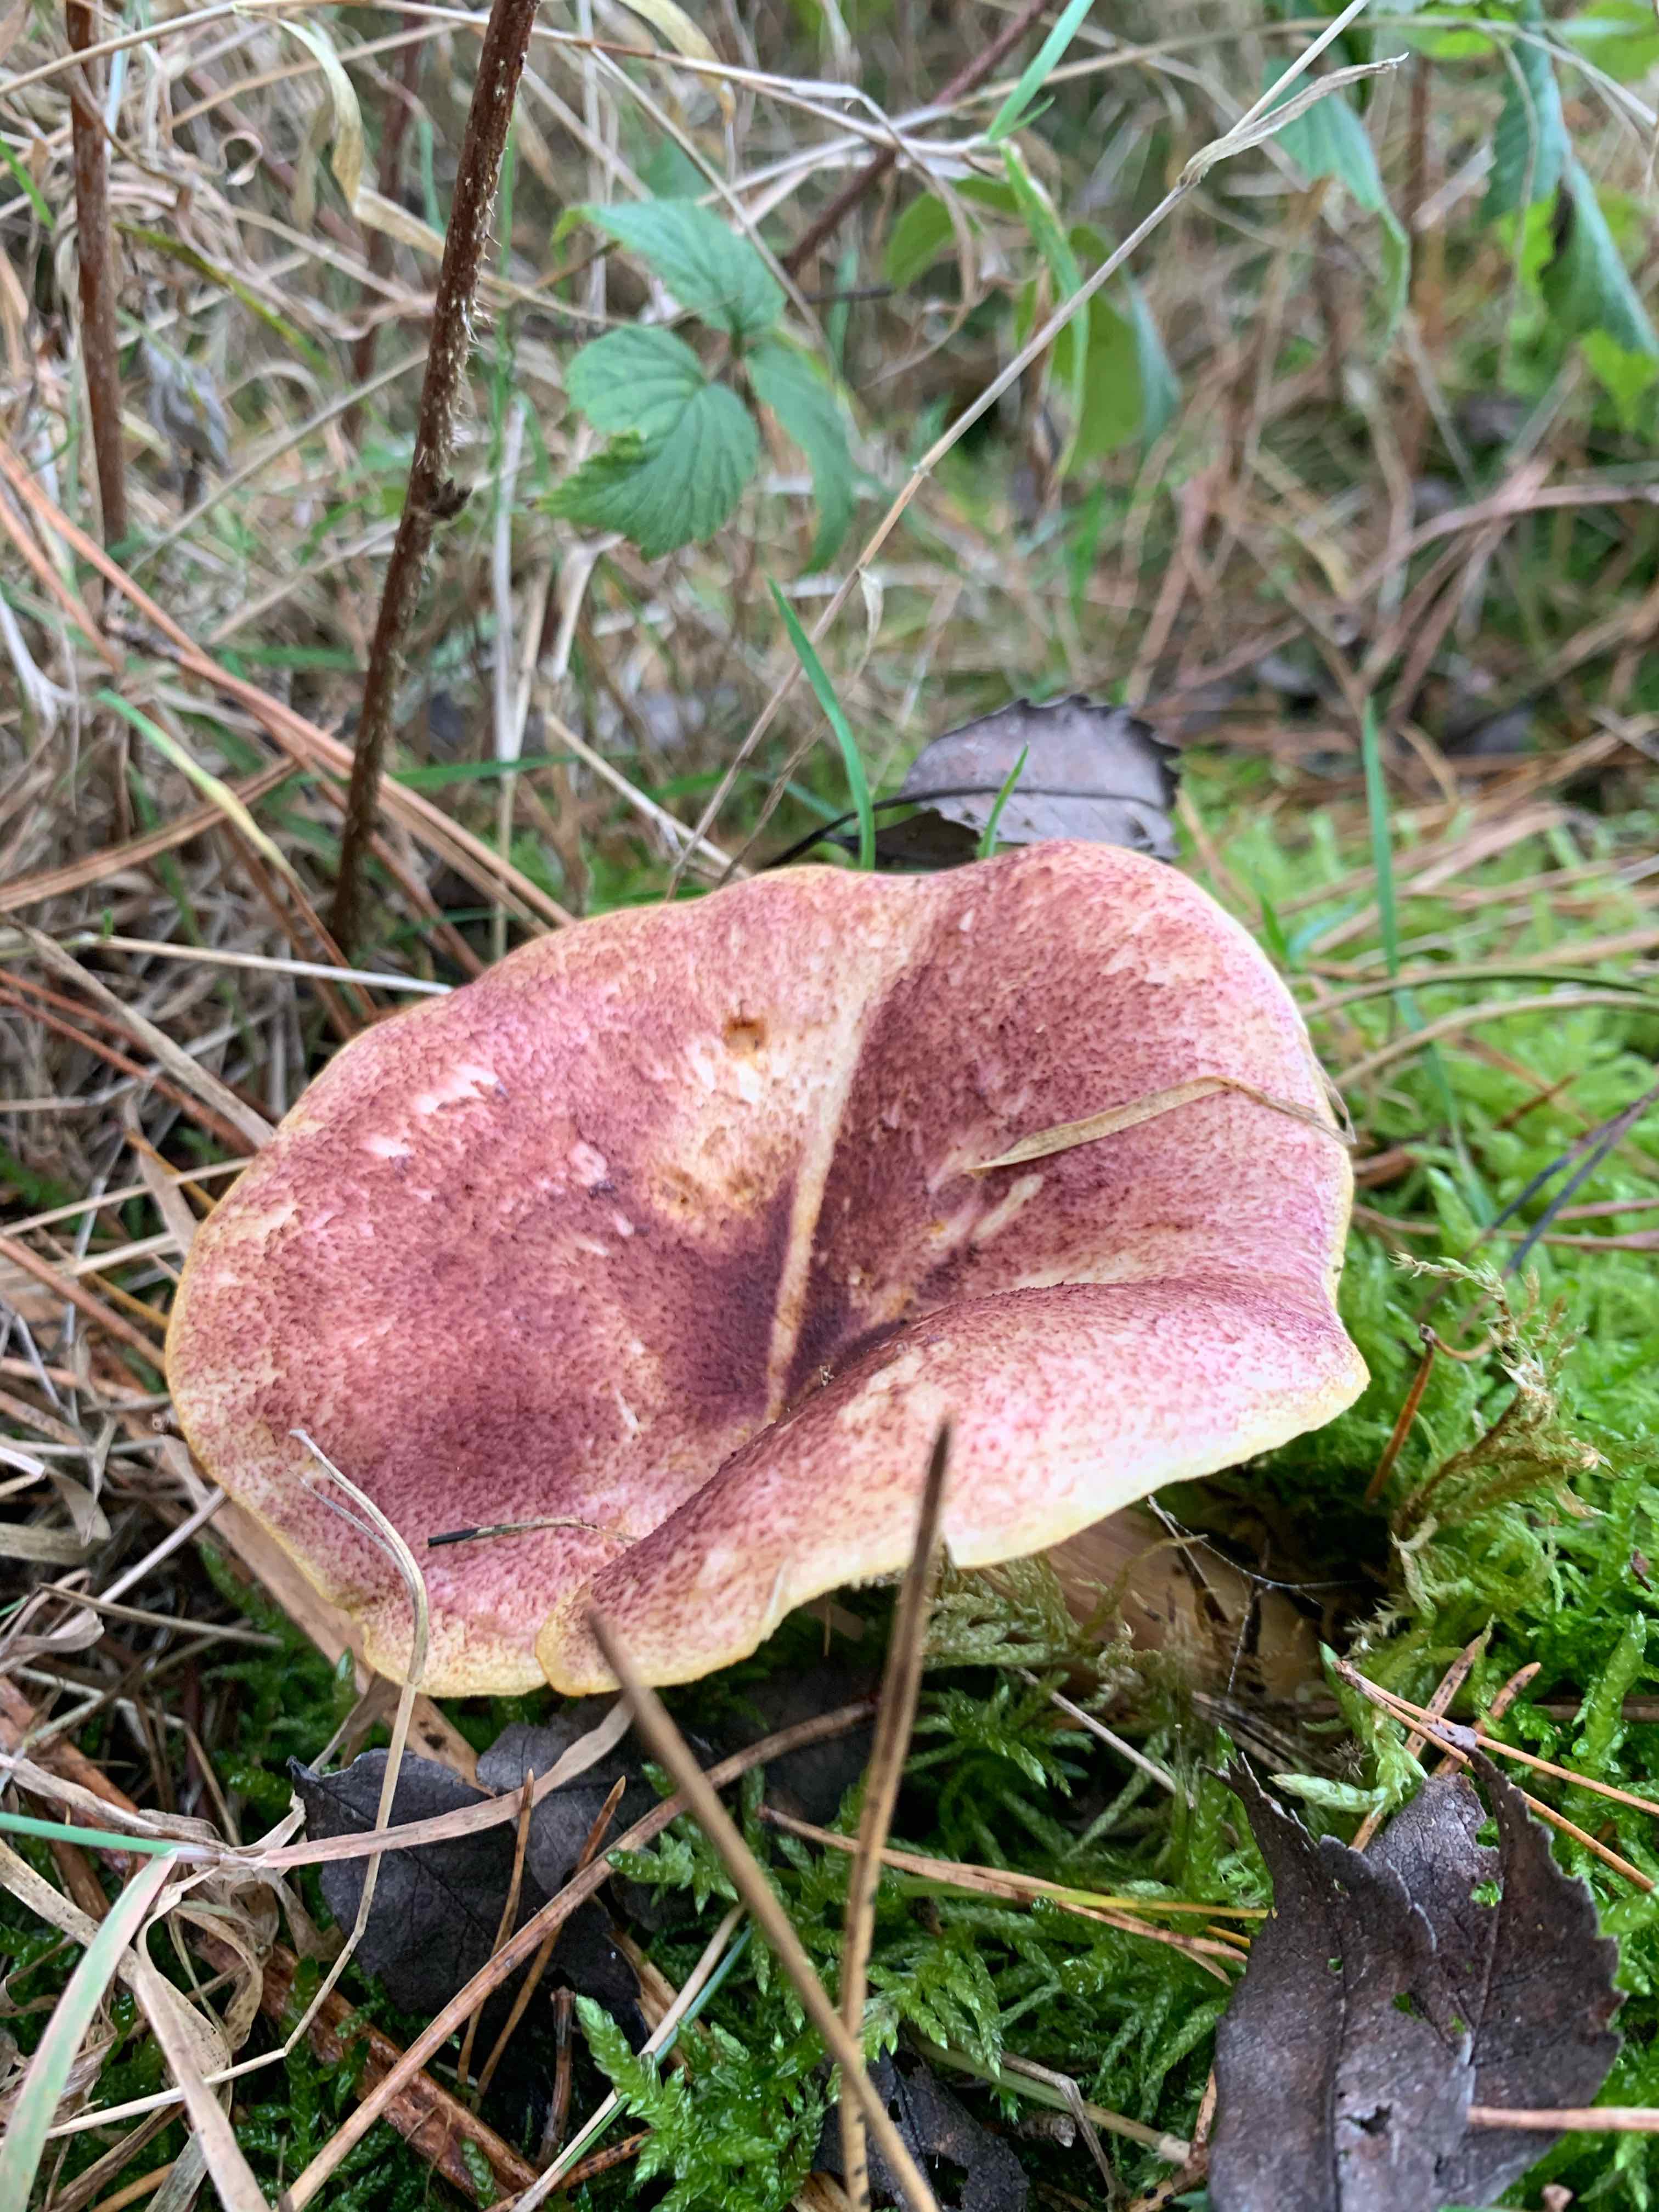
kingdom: Fungi
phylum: Basidiomycota
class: Agaricomycetes
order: Agaricales
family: Tricholomataceae
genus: Tricholomopsis
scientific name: Tricholomopsis rutilans
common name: purpur-væbnerhat
